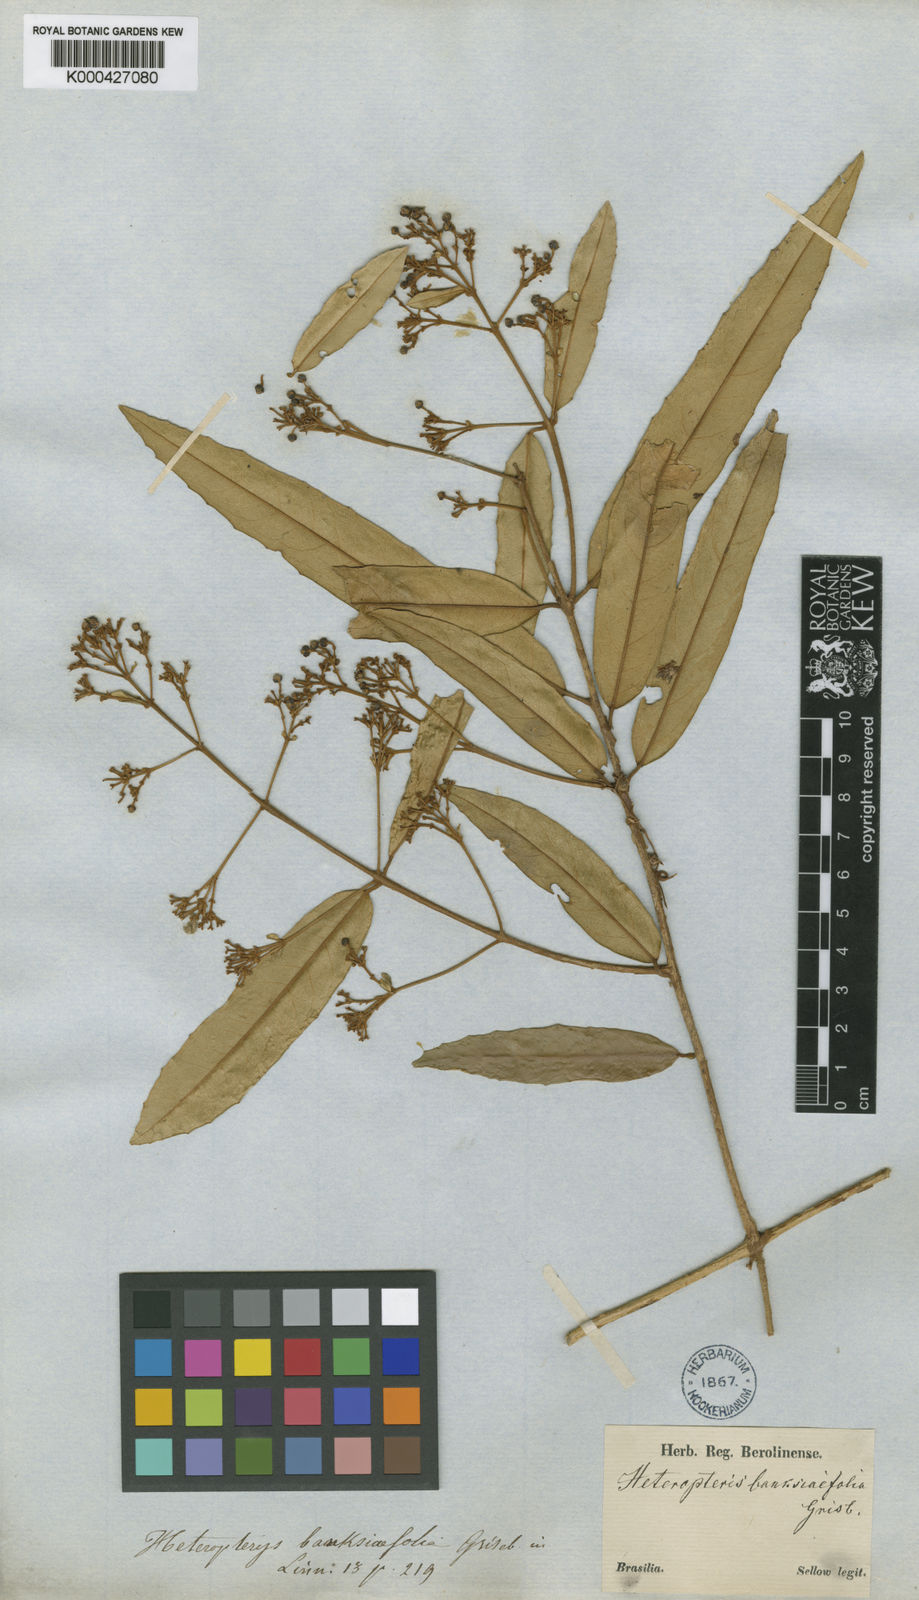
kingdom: Plantae
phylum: Tracheophyta
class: Magnoliopsida
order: Malpighiales
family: Malpighiaceae
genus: Heteropterys
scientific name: Heteropterys banksiifolia
